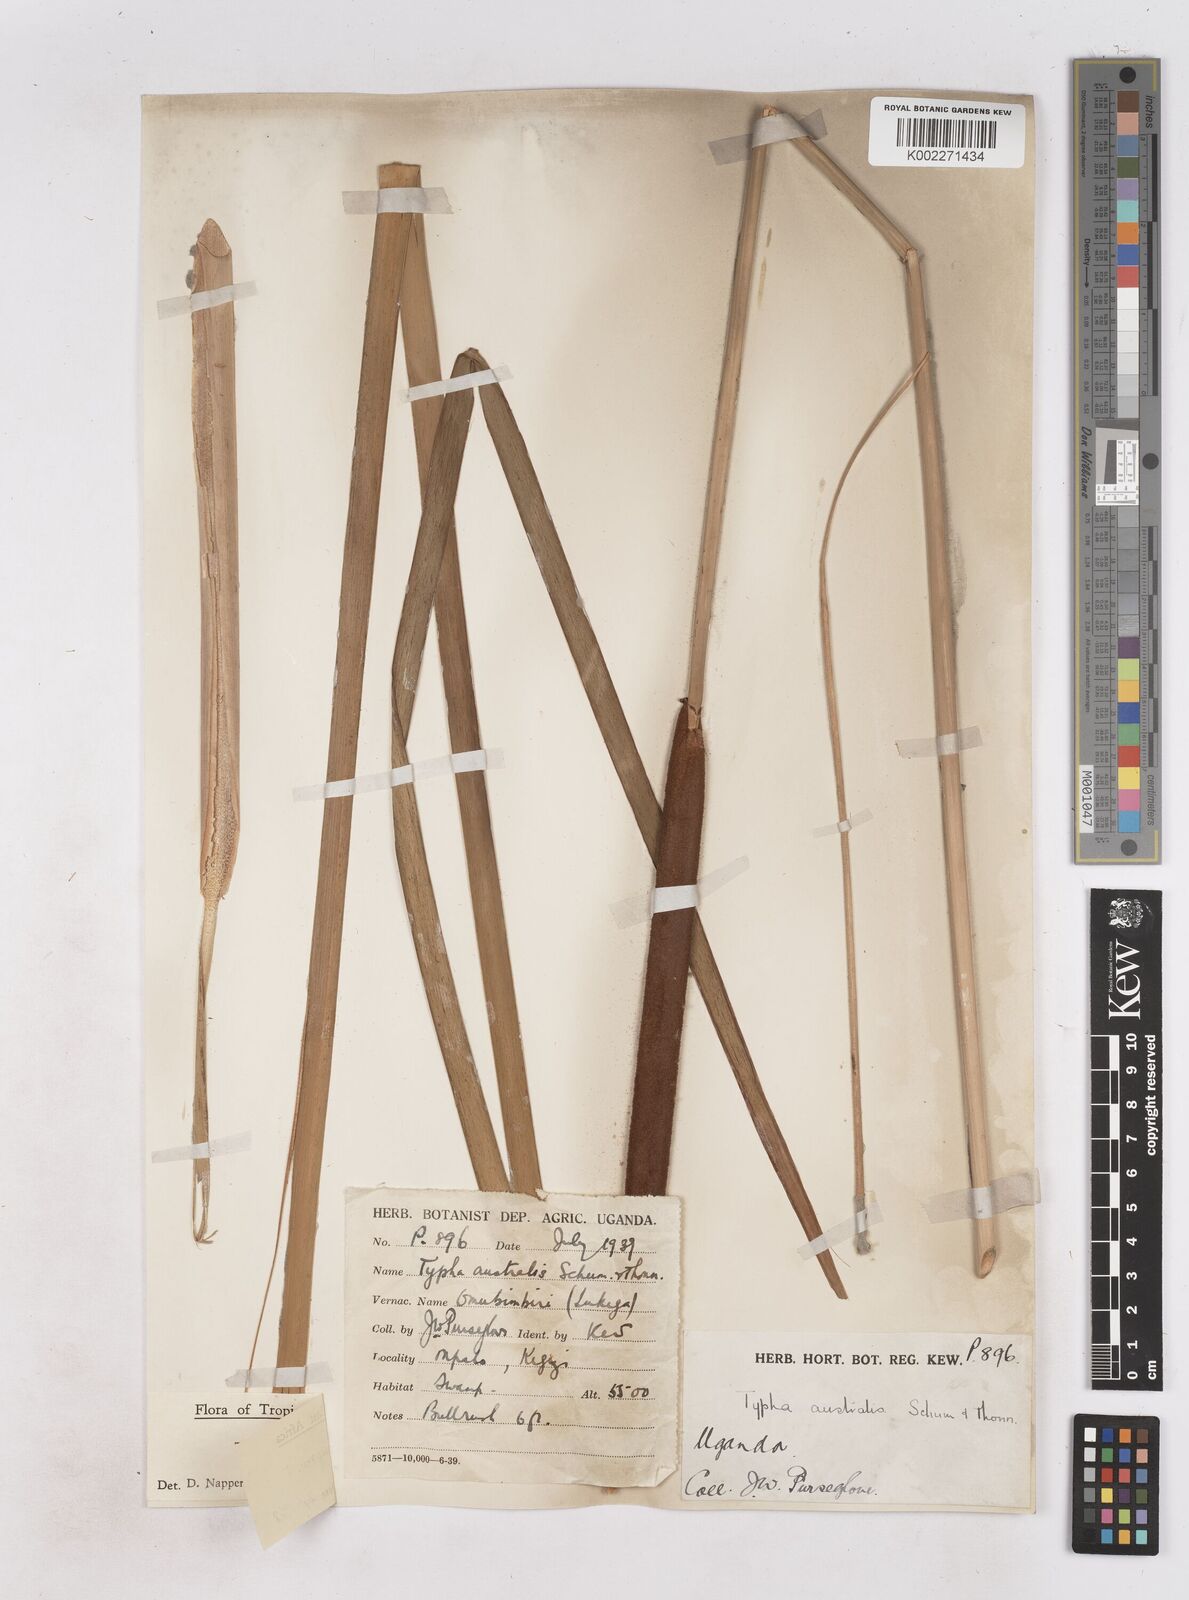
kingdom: Plantae
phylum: Tracheophyta
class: Liliopsida
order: Poales
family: Typhaceae
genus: Typha
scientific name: Typha domingensis
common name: Southern cattail
